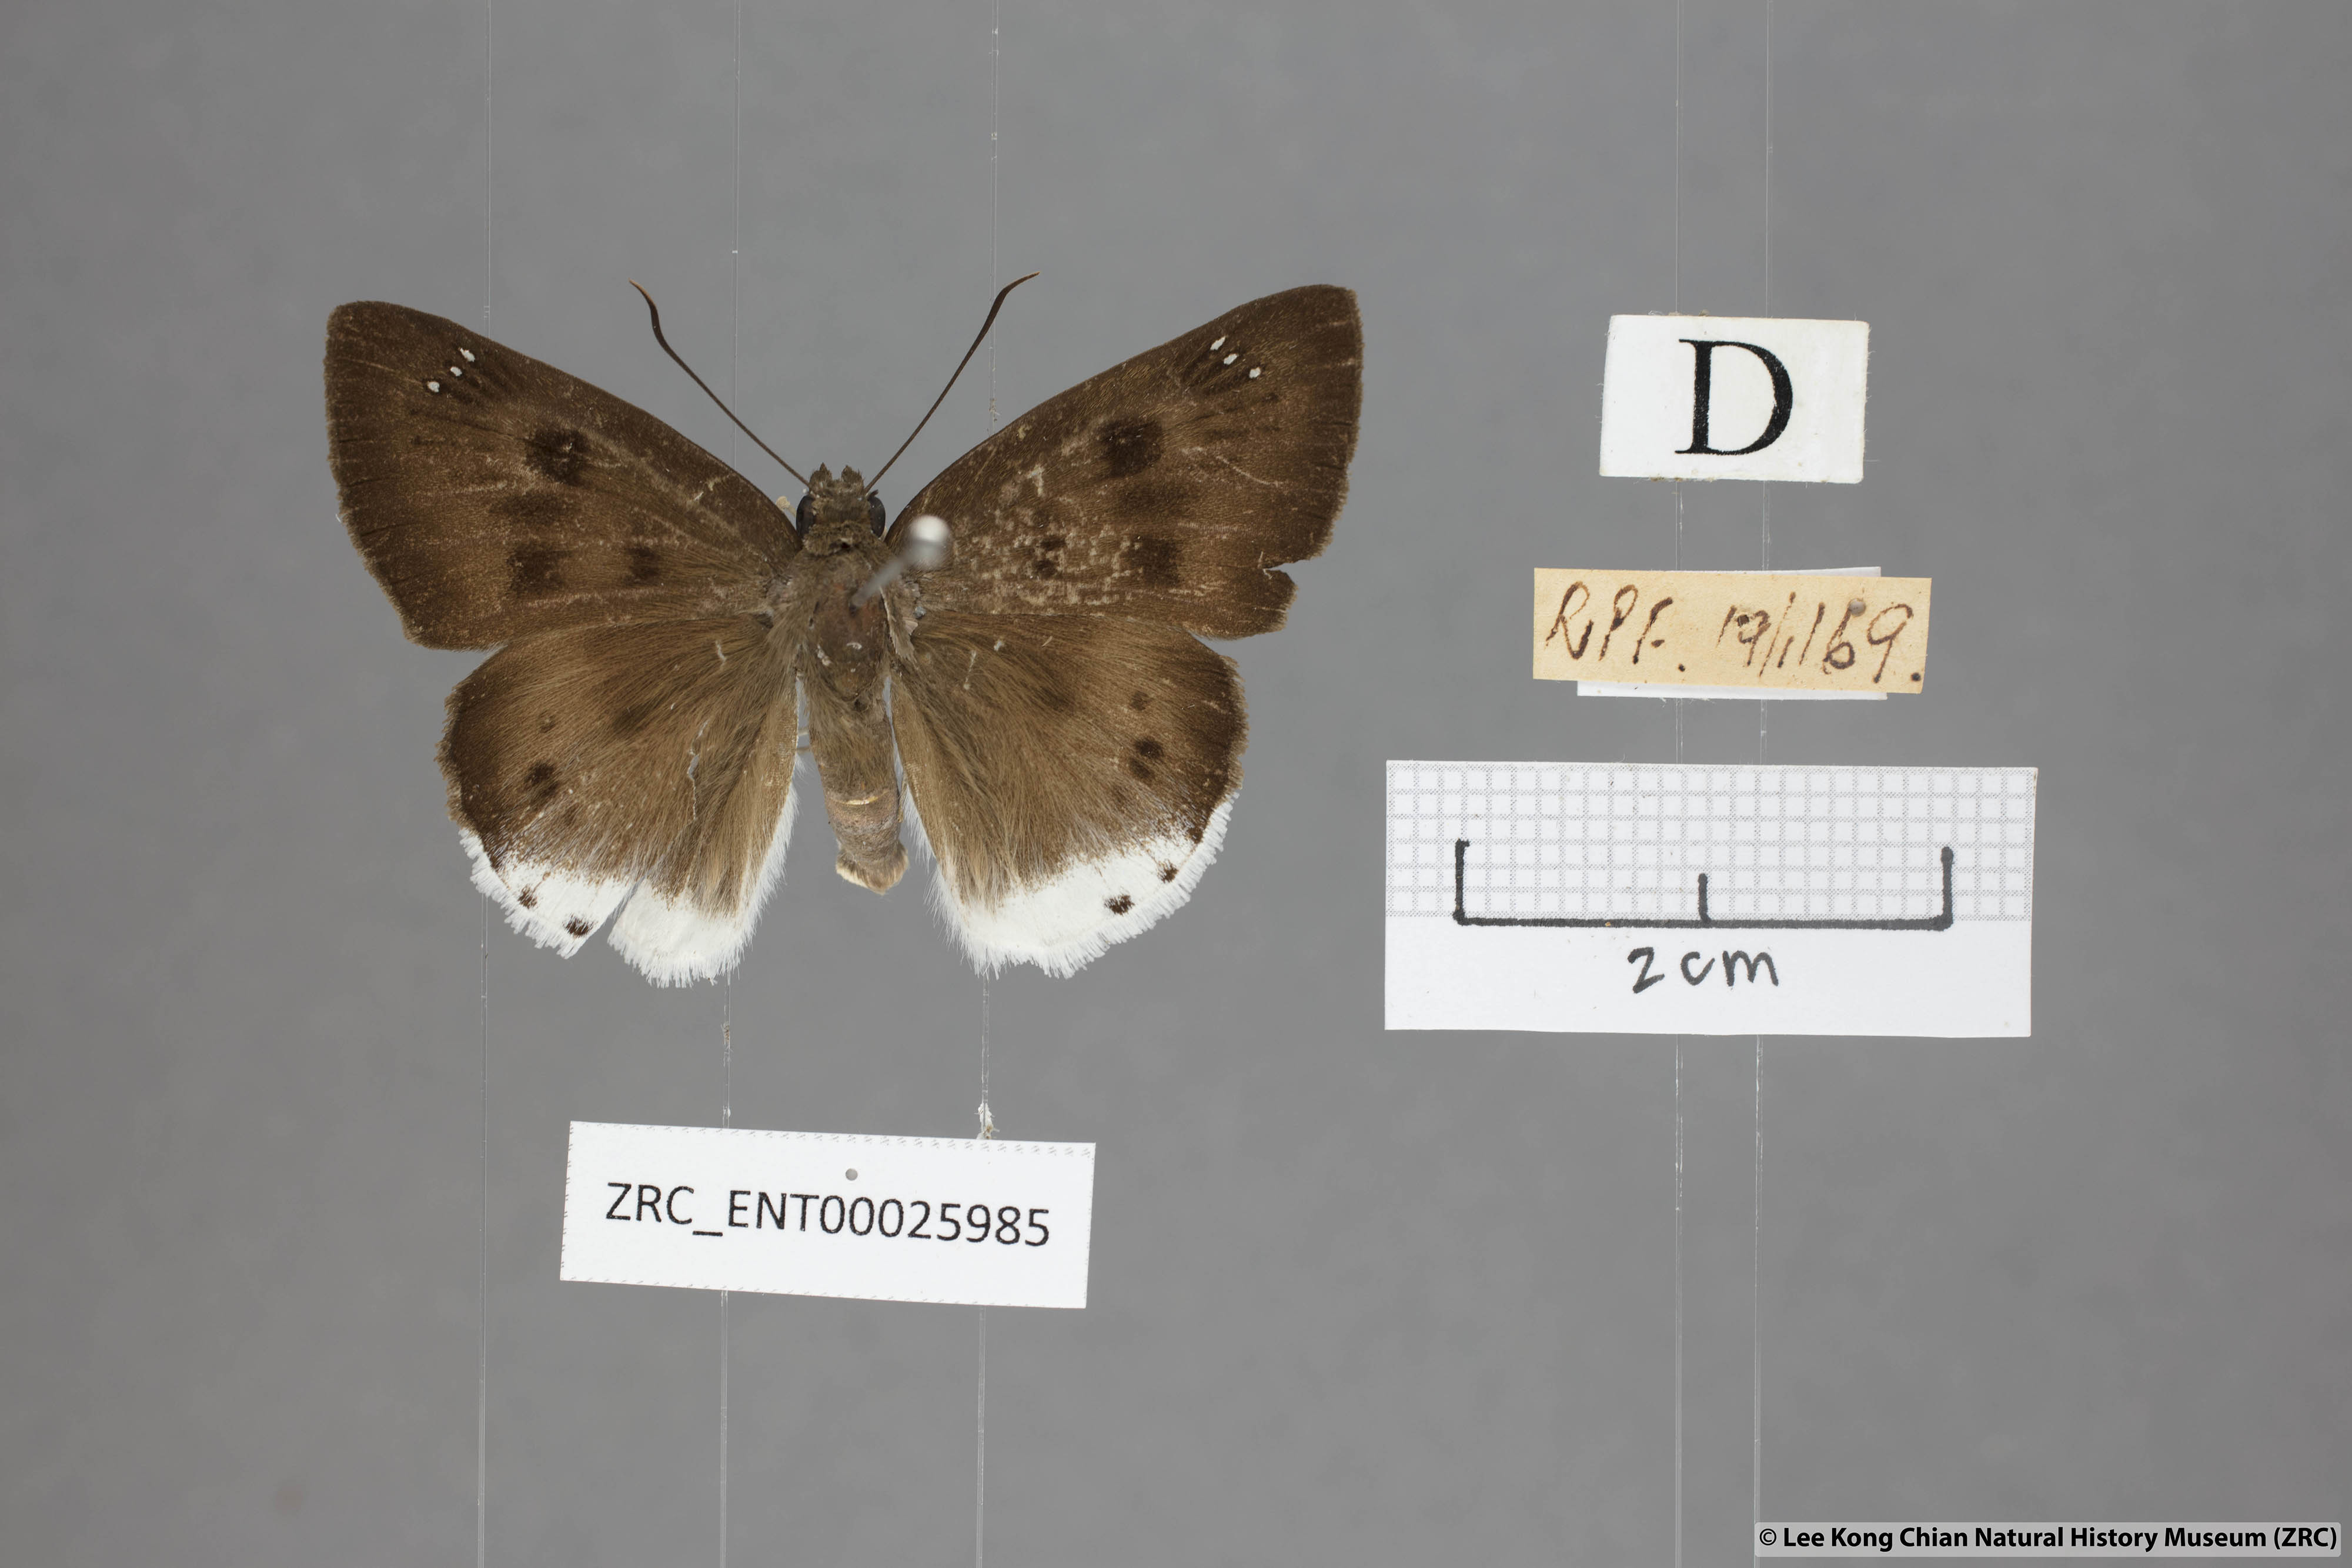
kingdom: Animalia
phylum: Arthropoda
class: Insecta
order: Lepidoptera
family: Hesperiidae
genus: Tagiades
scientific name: Tagiades gana
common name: Suffused snow flat
